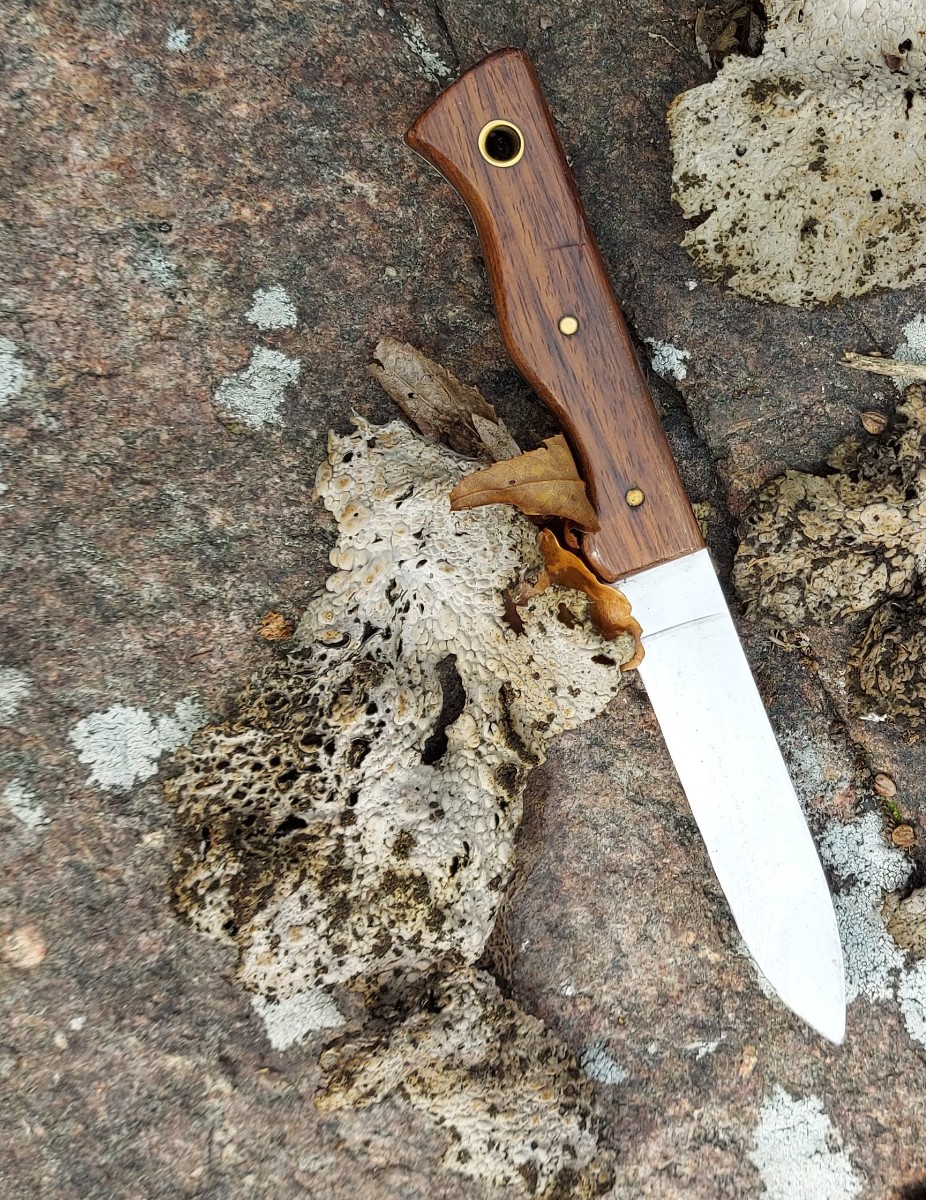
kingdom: Fungi
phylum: Ascomycota
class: Lecanoromycetes
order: Umbilicariales
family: Umbilicariaceae
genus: Lasallia
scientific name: Lasallia pustulata
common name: buklet navlelav
